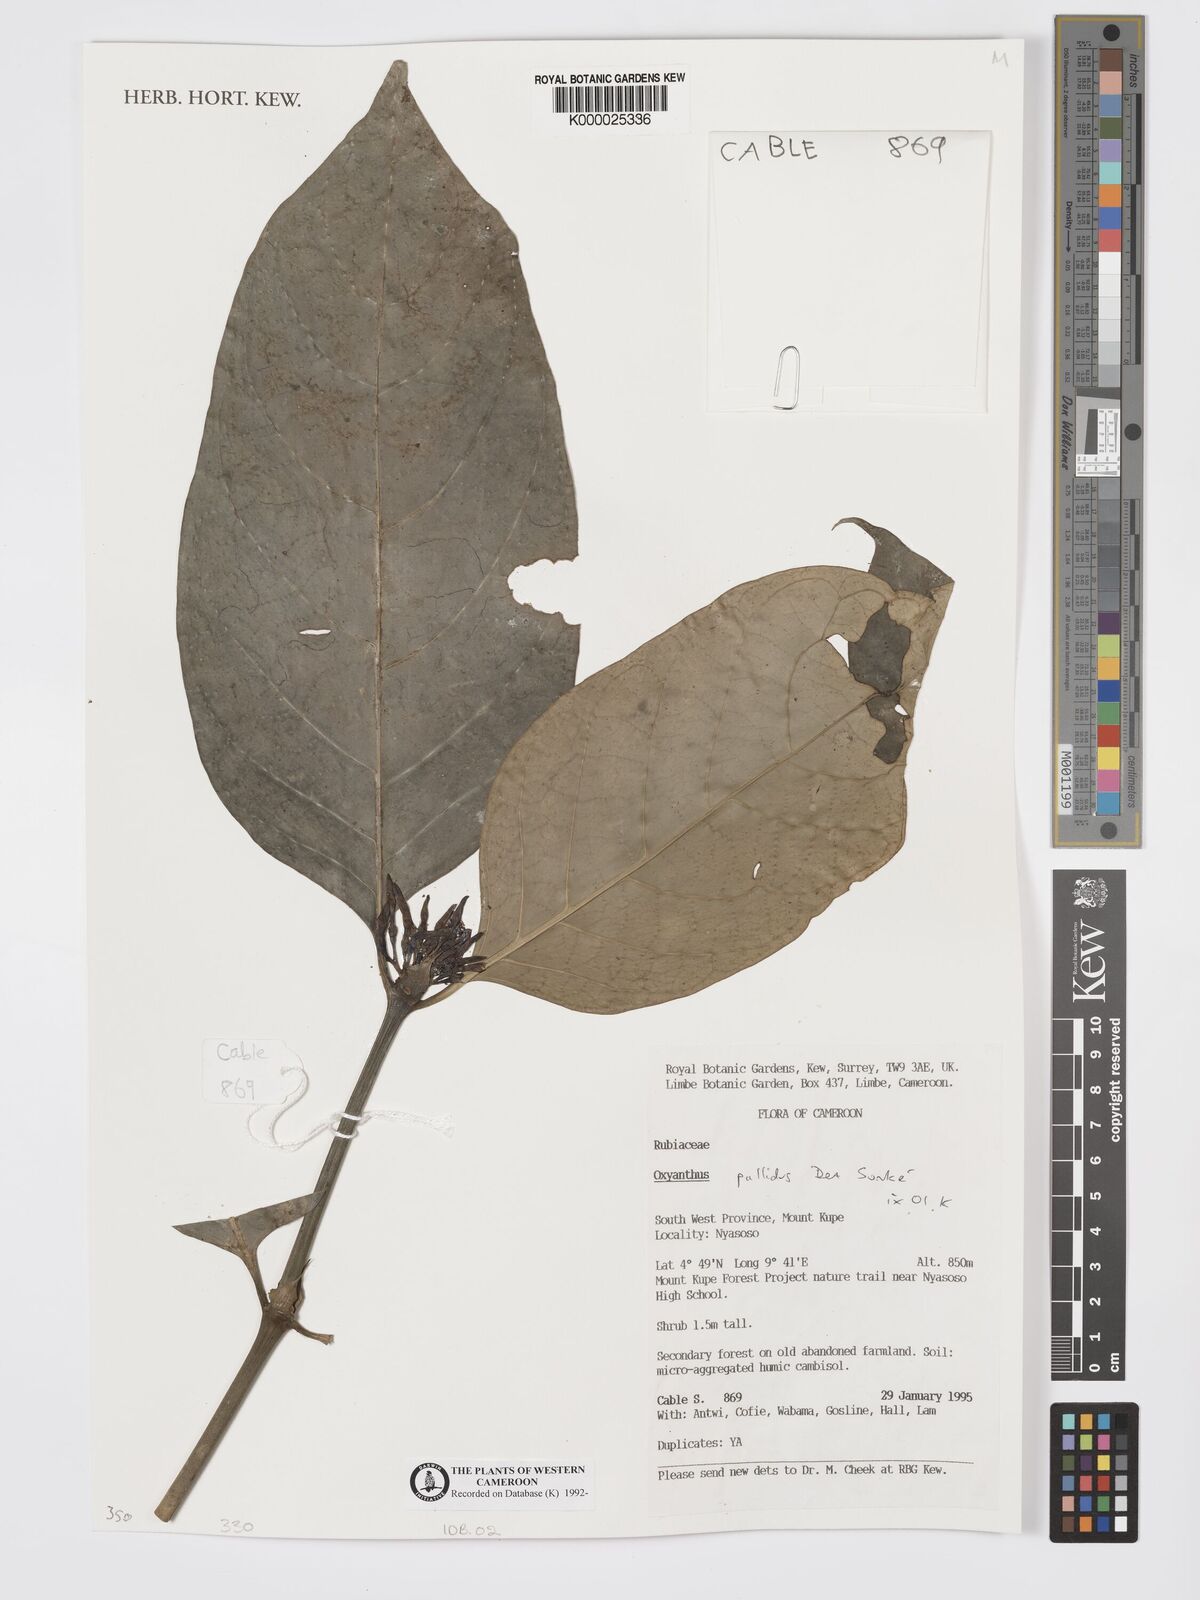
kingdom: Plantae
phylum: Tracheophyta
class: Magnoliopsida
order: Gentianales
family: Rubiaceae
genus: Oxyanthus
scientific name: Oxyanthus pallidus
